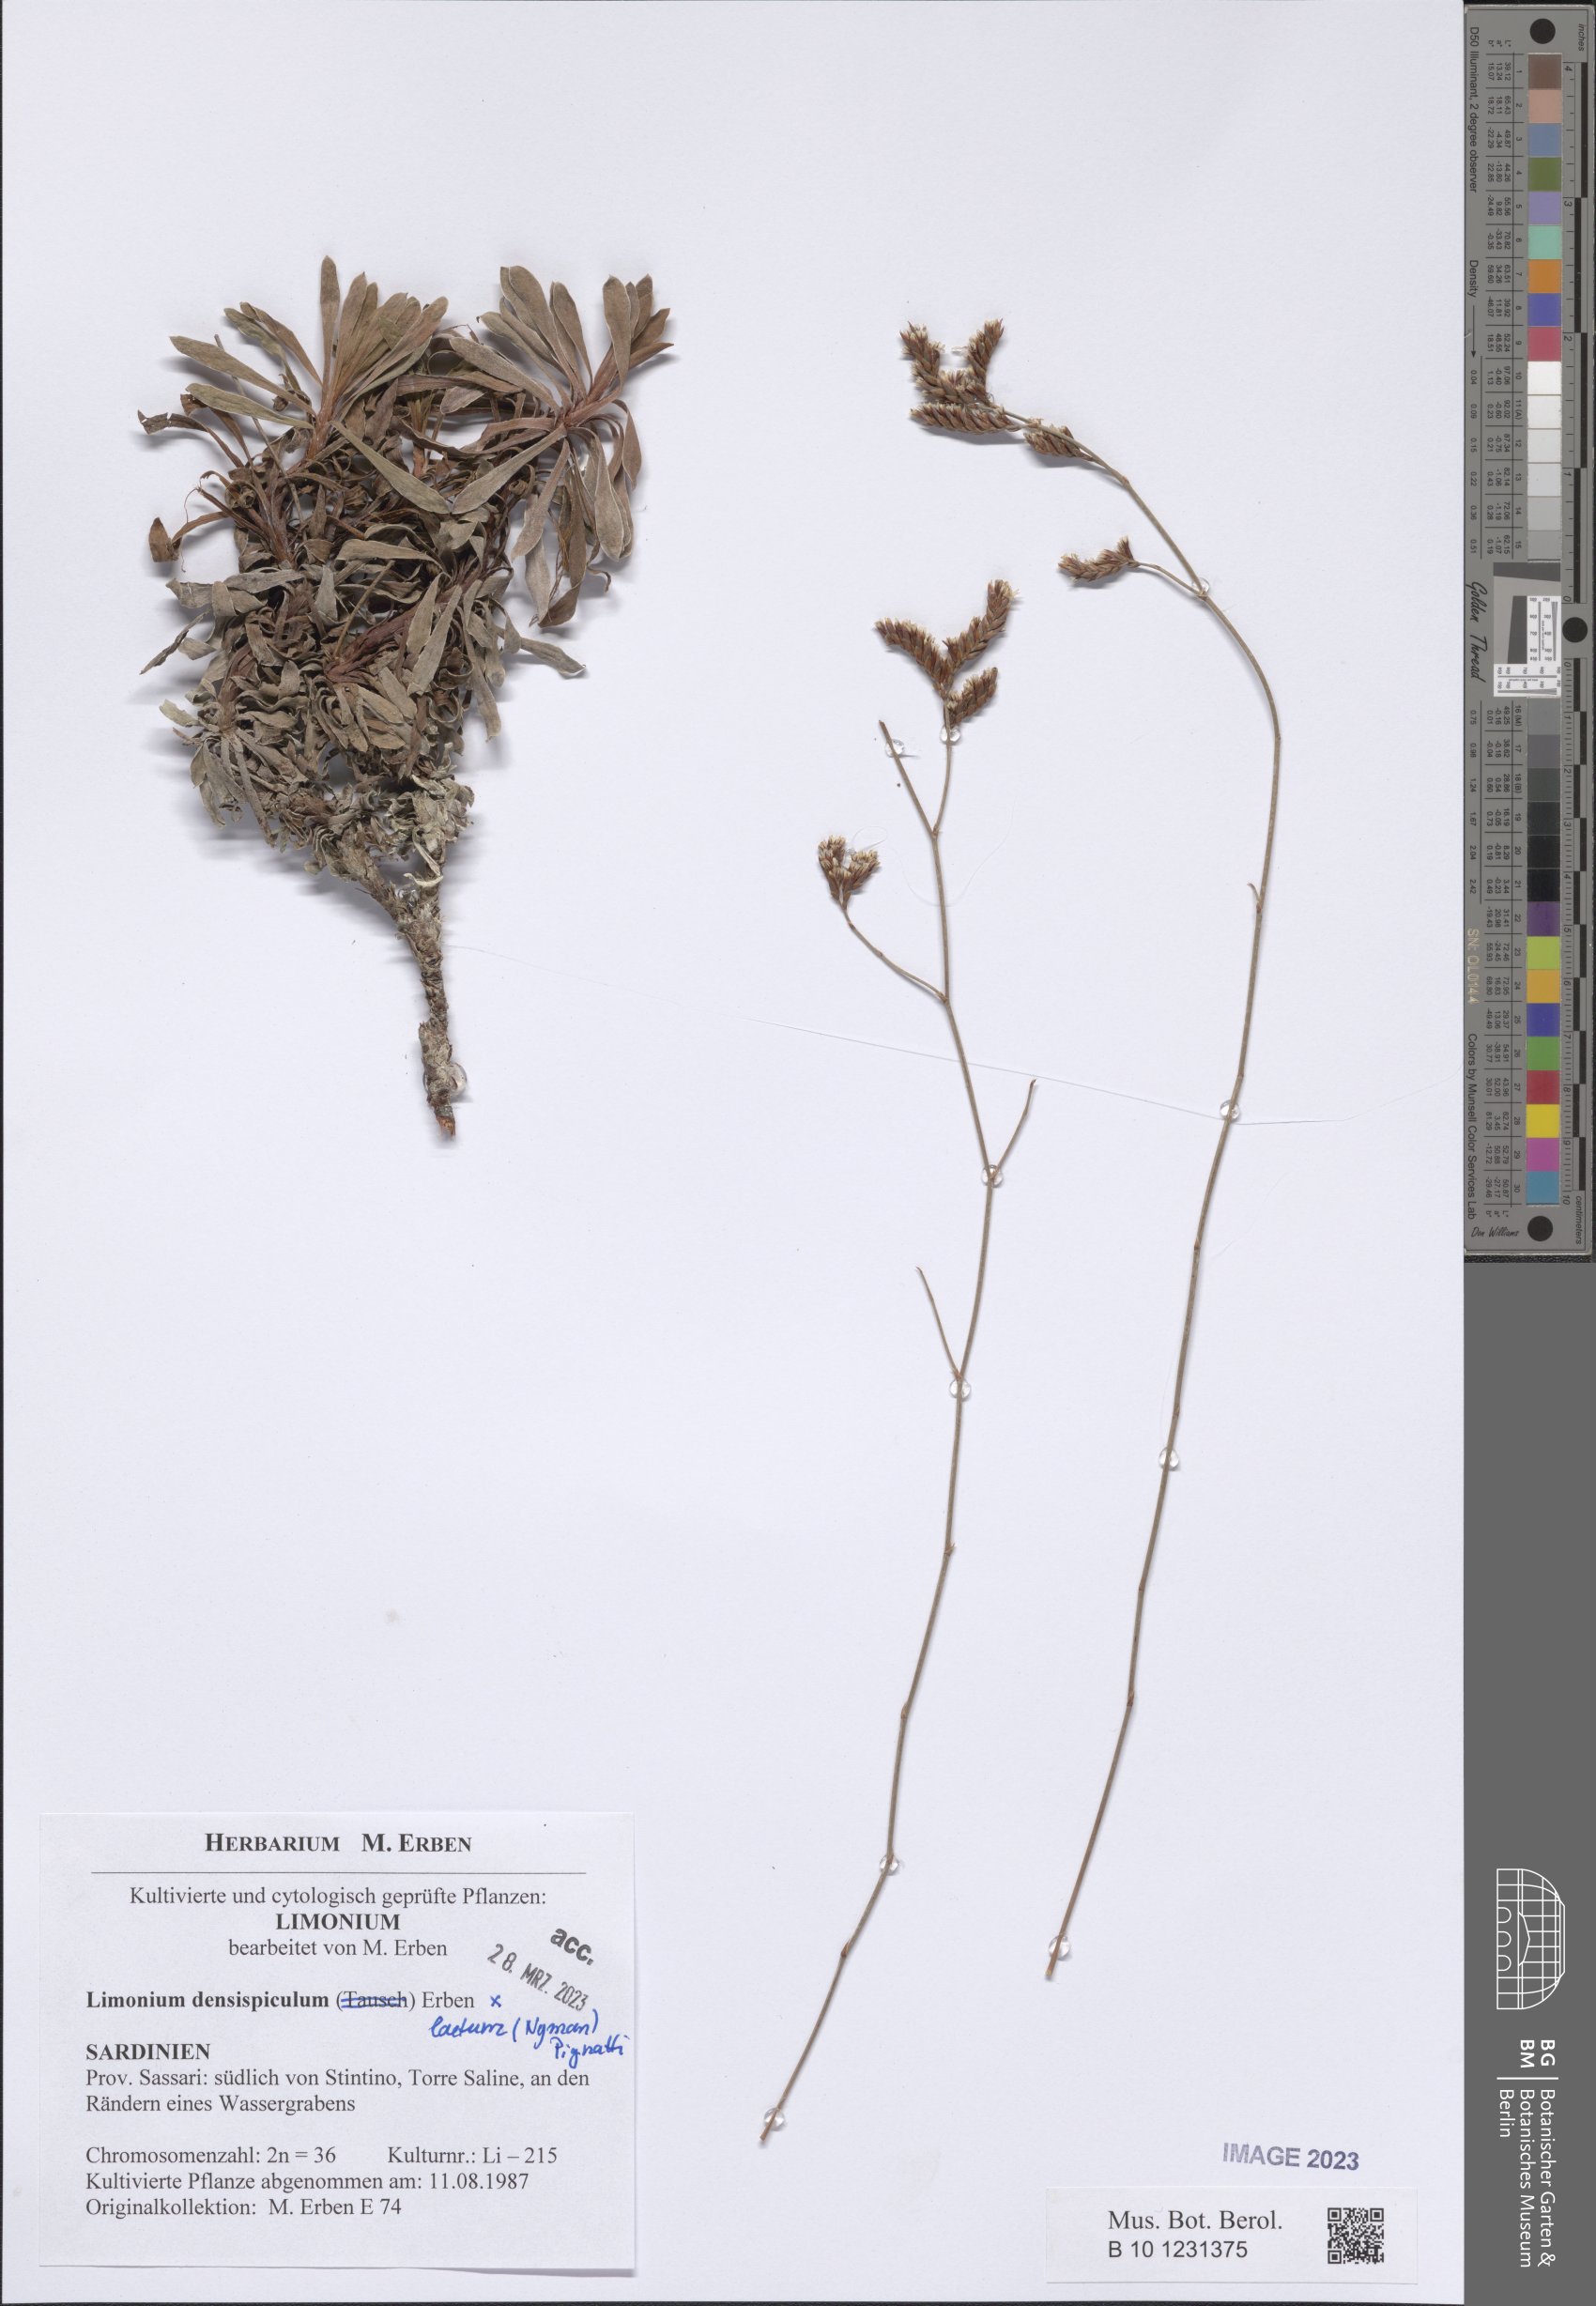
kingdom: Plantae
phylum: Tracheophyta
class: Magnoliopsida
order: Caryophyllales
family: Plumbaginaceae
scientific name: Plumbaginaceae
